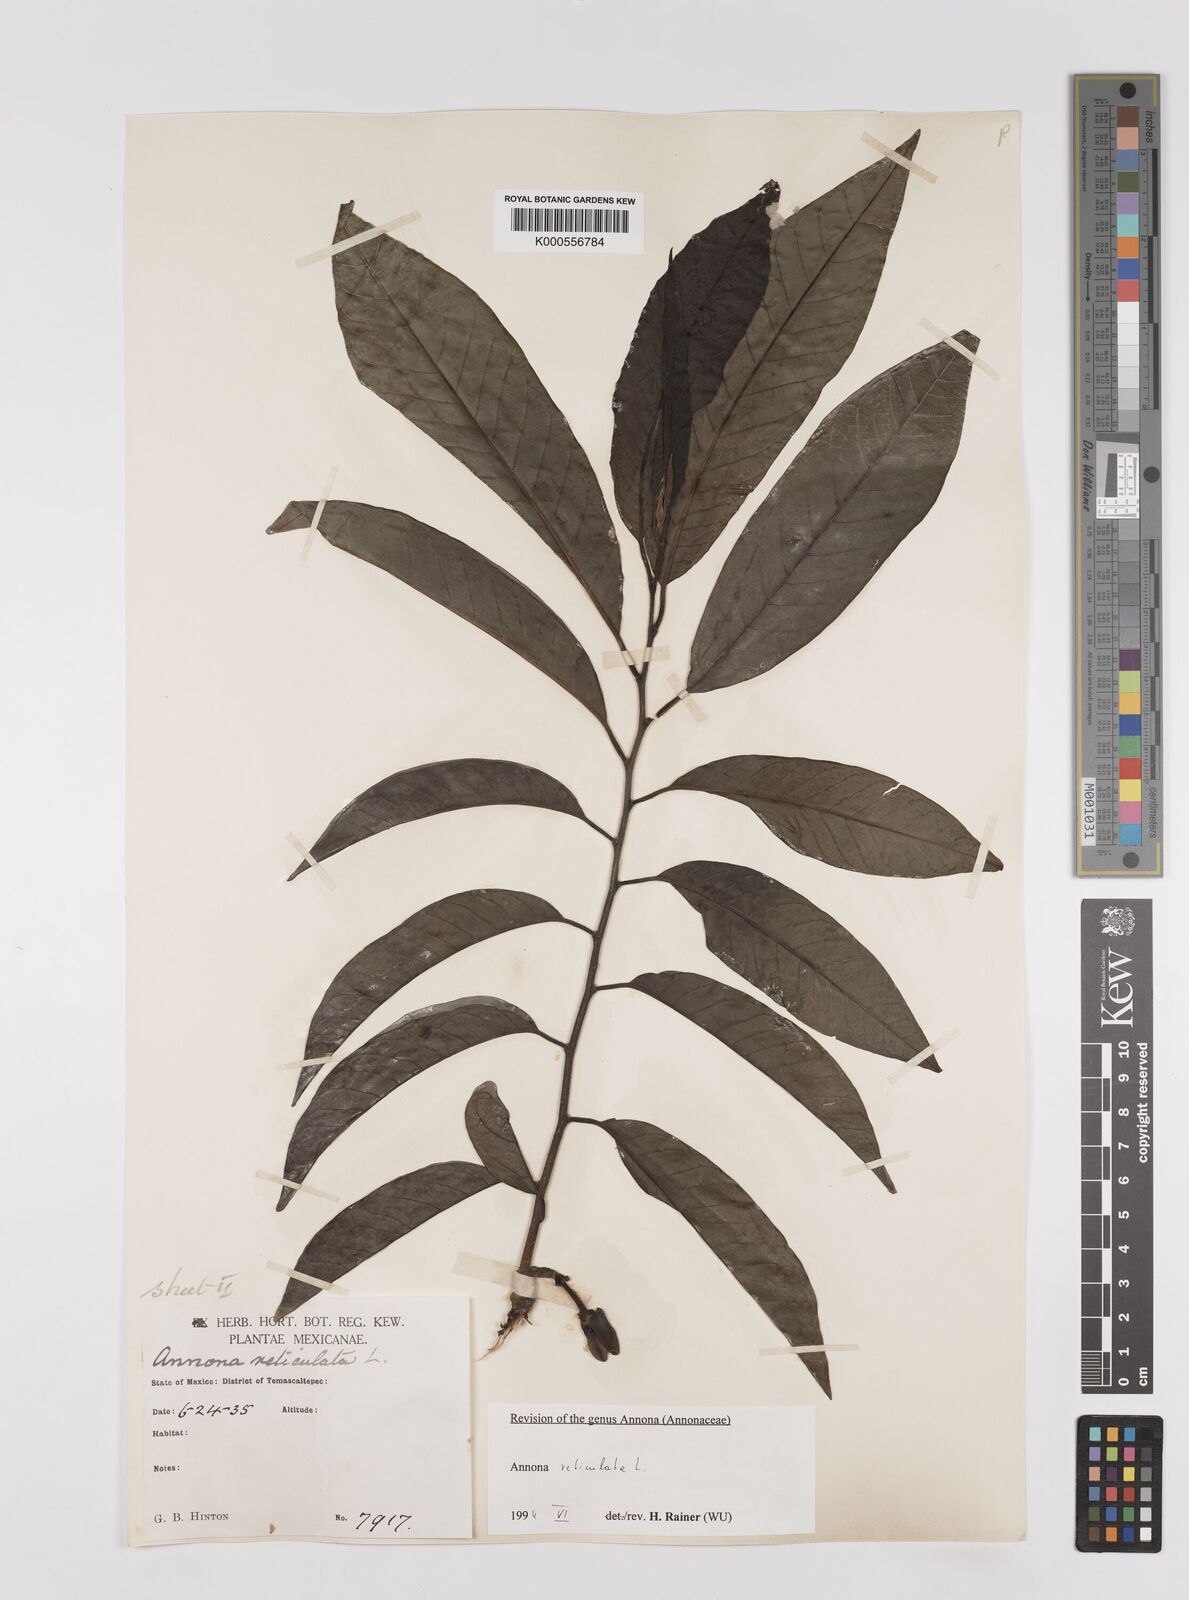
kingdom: Plantae
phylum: Tracheophyta
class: Magnoliopsida
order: Magnoliales
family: Annonaceae
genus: Annona
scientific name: Annona reticulata
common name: Custard apple
